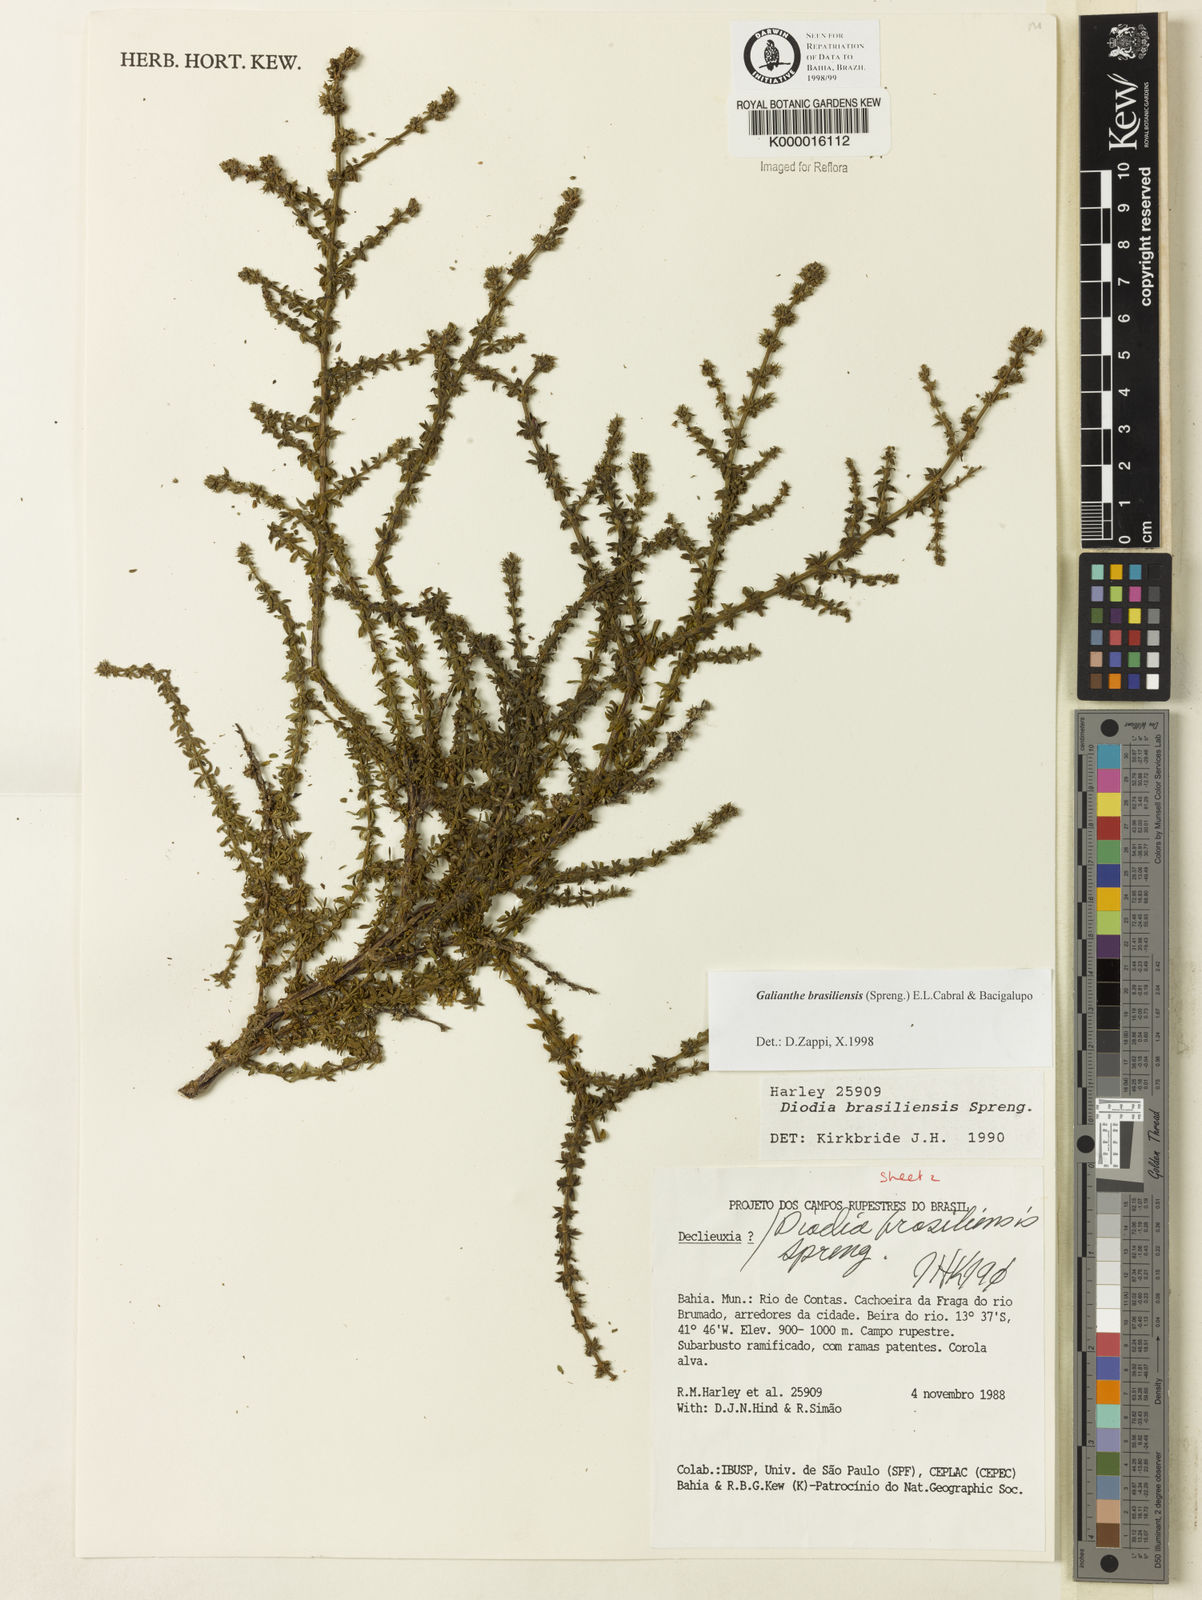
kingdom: Plantae
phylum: Tracheophyta
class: Magnoliopsida
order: Gentianales
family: Rubiaceae
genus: Galianthe
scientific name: Galianthe brasiliensis
